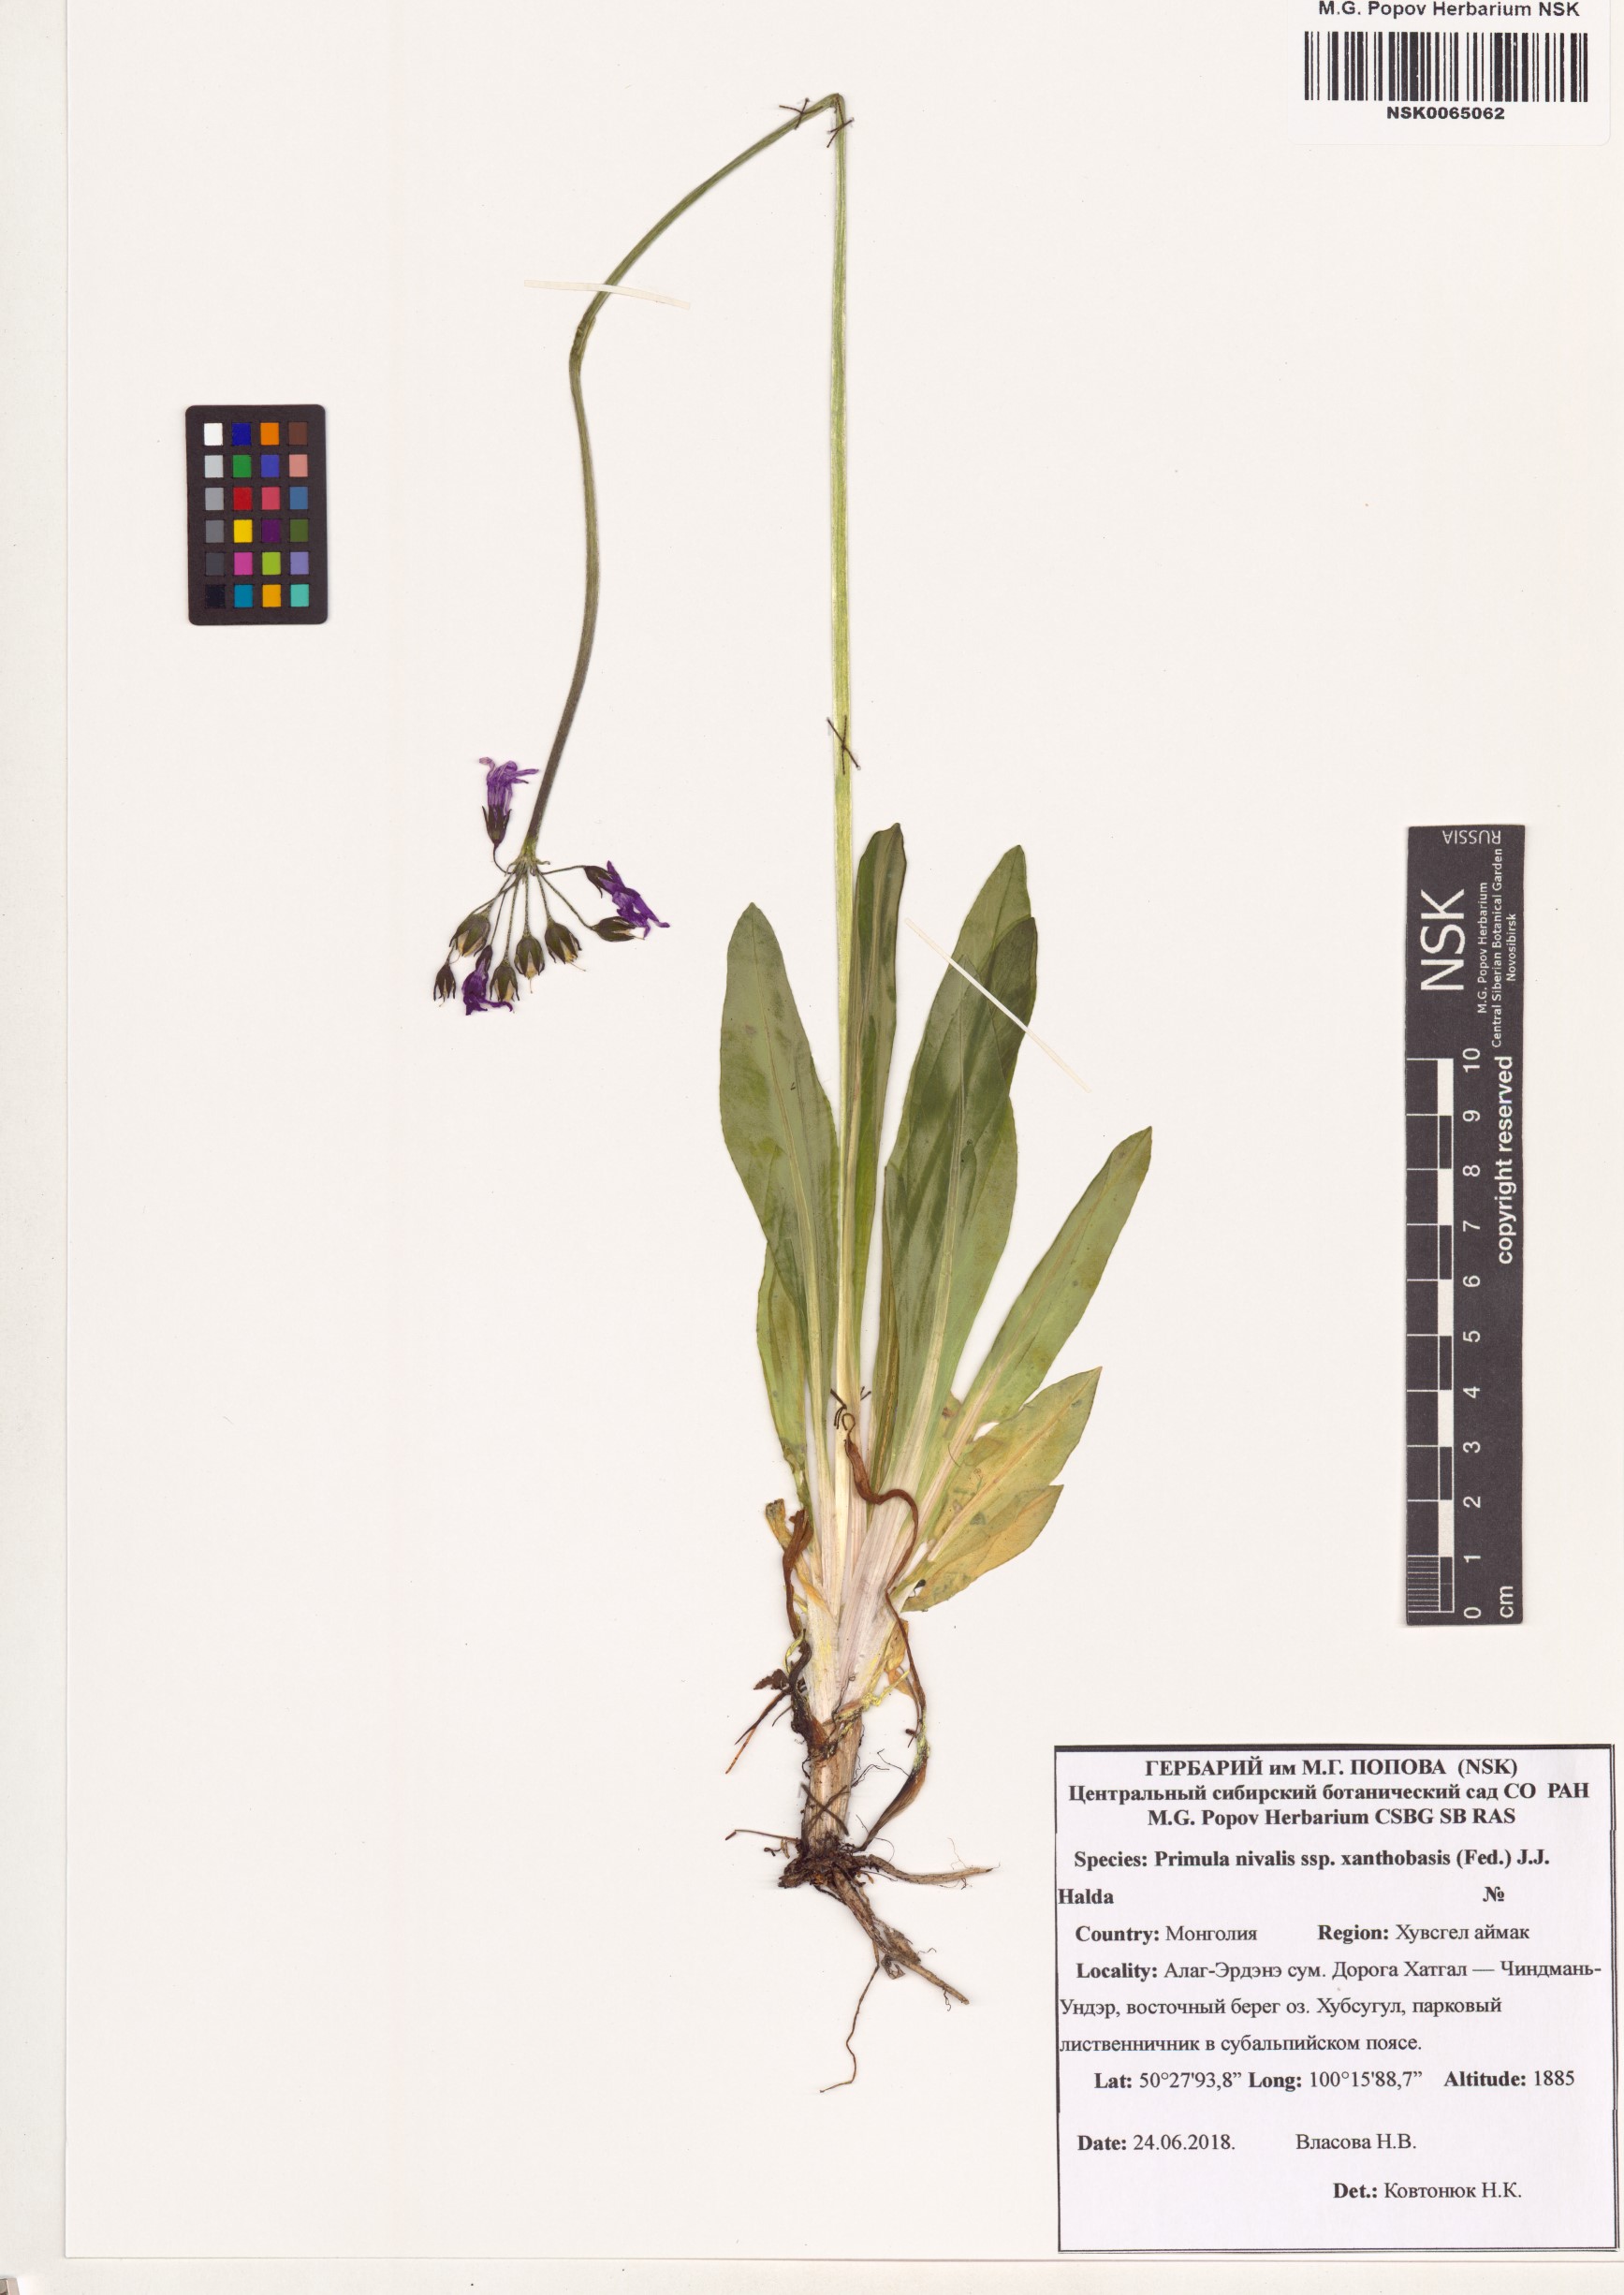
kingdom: Plantae
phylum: Tracheophyta
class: Magnoliopsida
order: Ericales
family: Primulaceae
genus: Primula
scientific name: Primula nivalis
